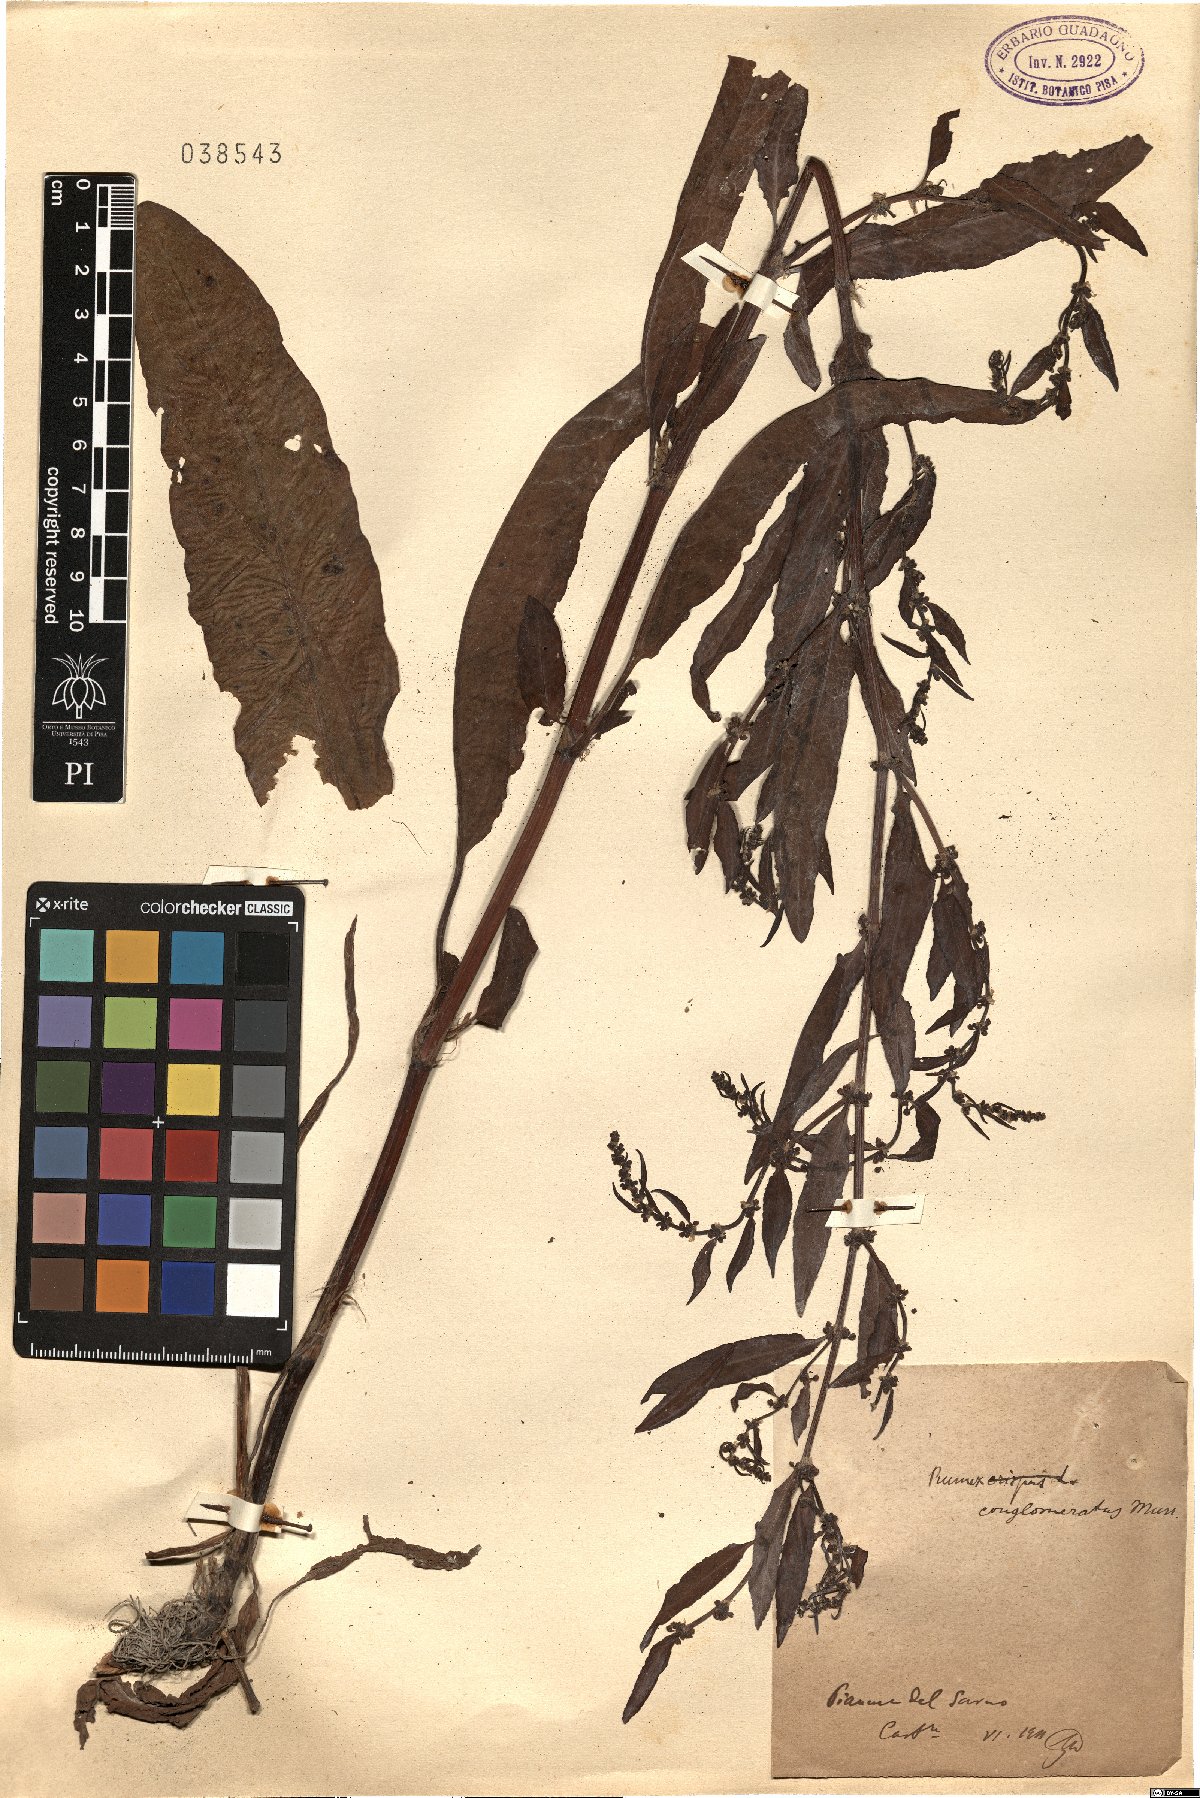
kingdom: Plantae
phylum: Tracheophyta
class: Magnoliopsida
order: Caryophyllales
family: Polygonaceae
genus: Rumex
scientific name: Rumex conglomeratus
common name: Clustered dock
